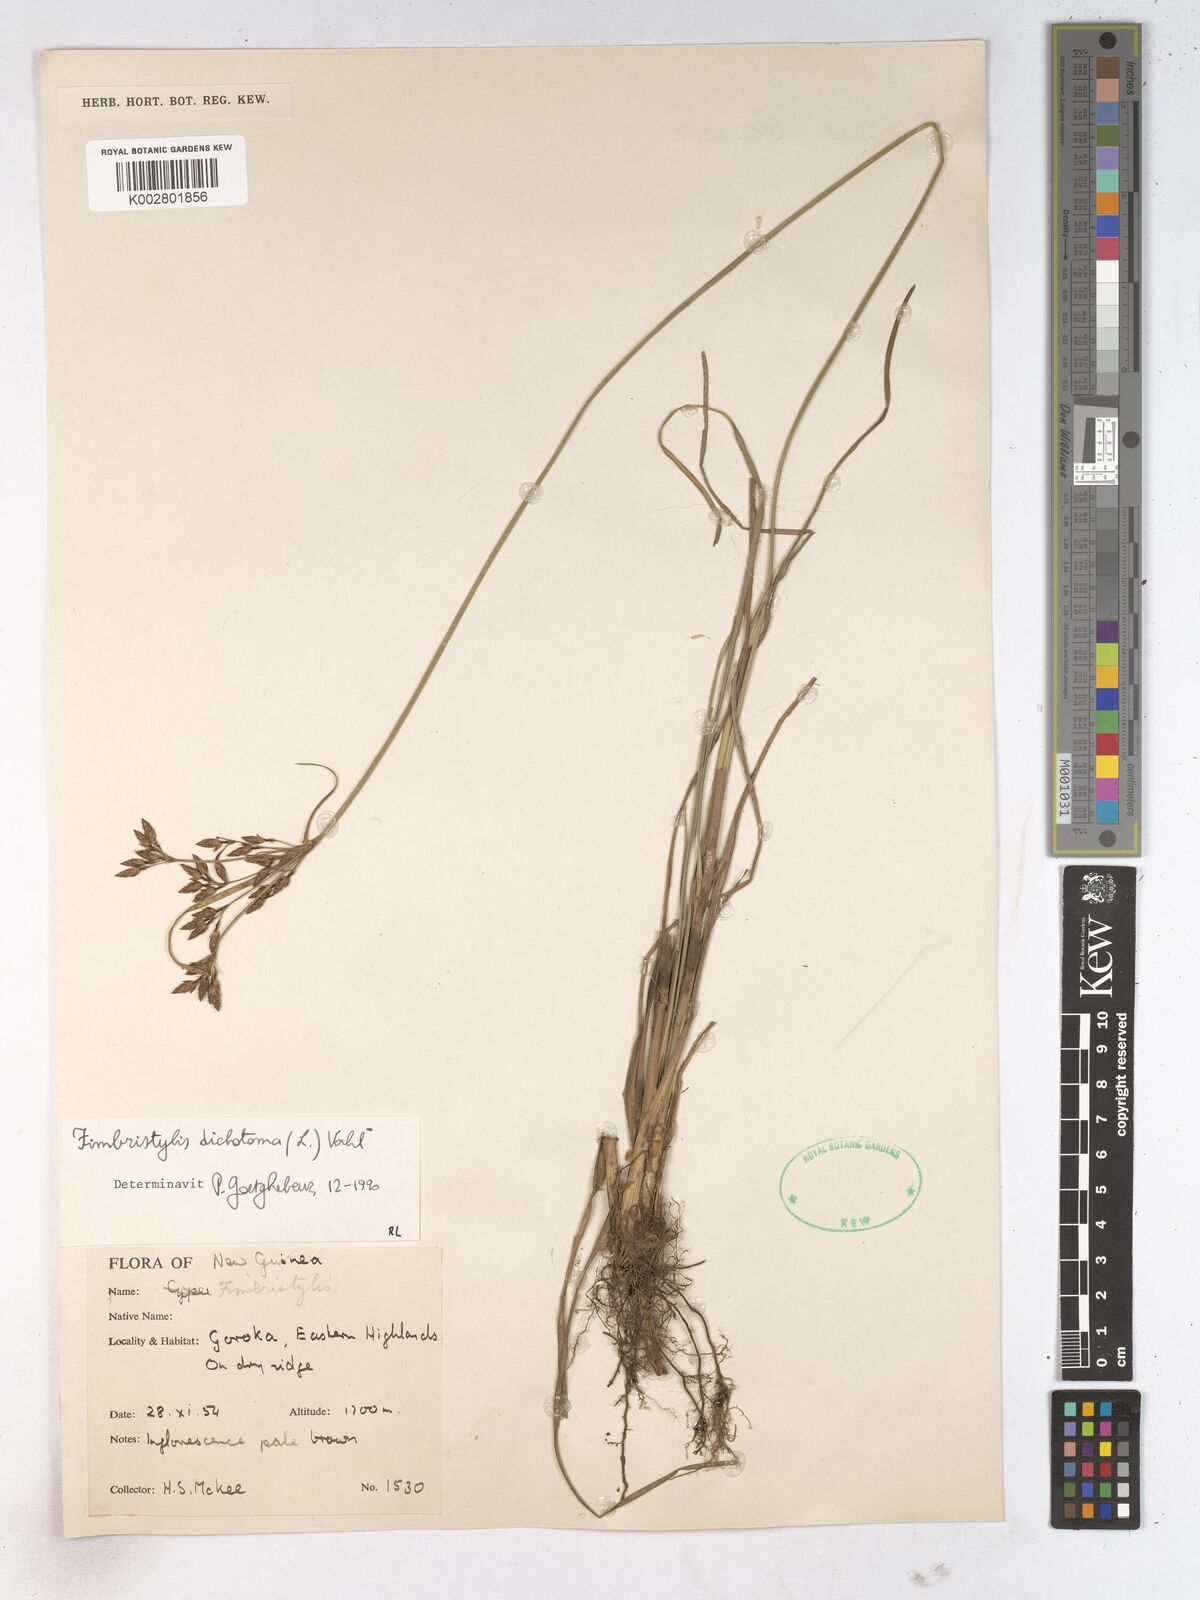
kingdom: Plantae
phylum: Tracheophyta
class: Liliopsida
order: Poales
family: Cyperaceae
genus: Fimbristylis
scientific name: Fimbristylis dichotoma
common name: Forked fimbry
